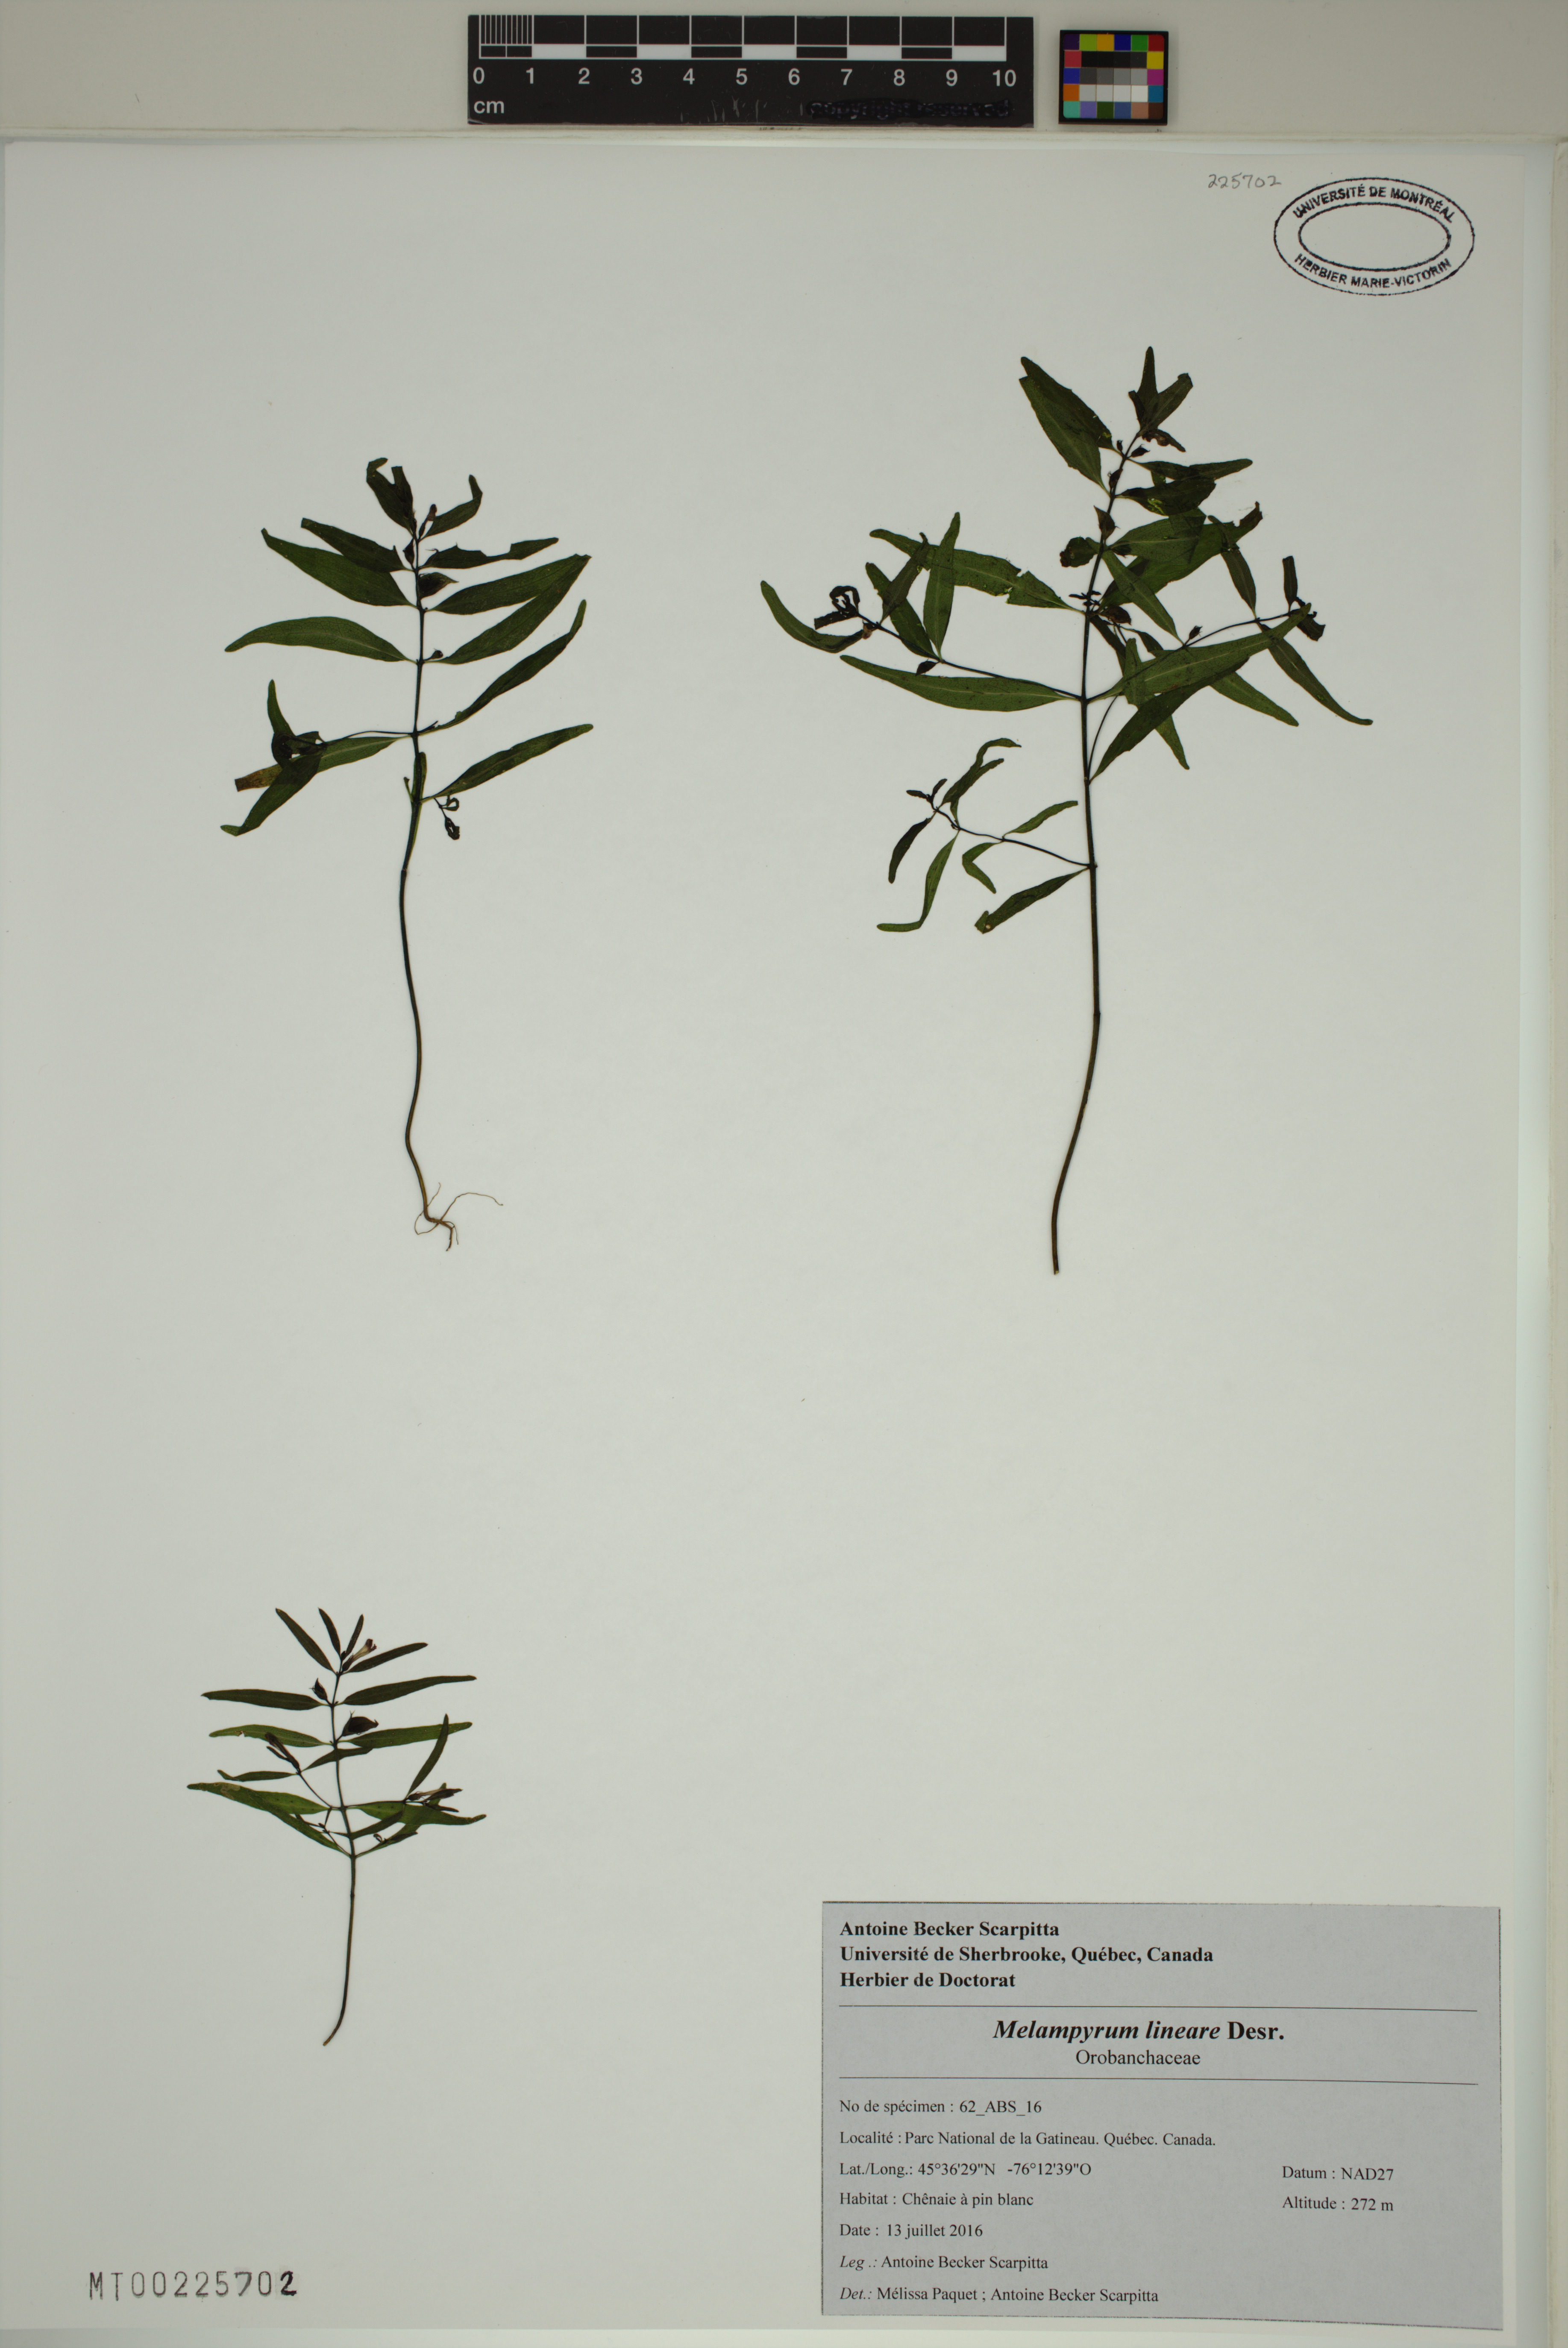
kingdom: Plantae
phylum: Tracheophyta
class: Magnoliopsida
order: Lamiales
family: Orobanchaceae
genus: Melampyrum
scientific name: Melampyrum lineare
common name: American cow-wheat
